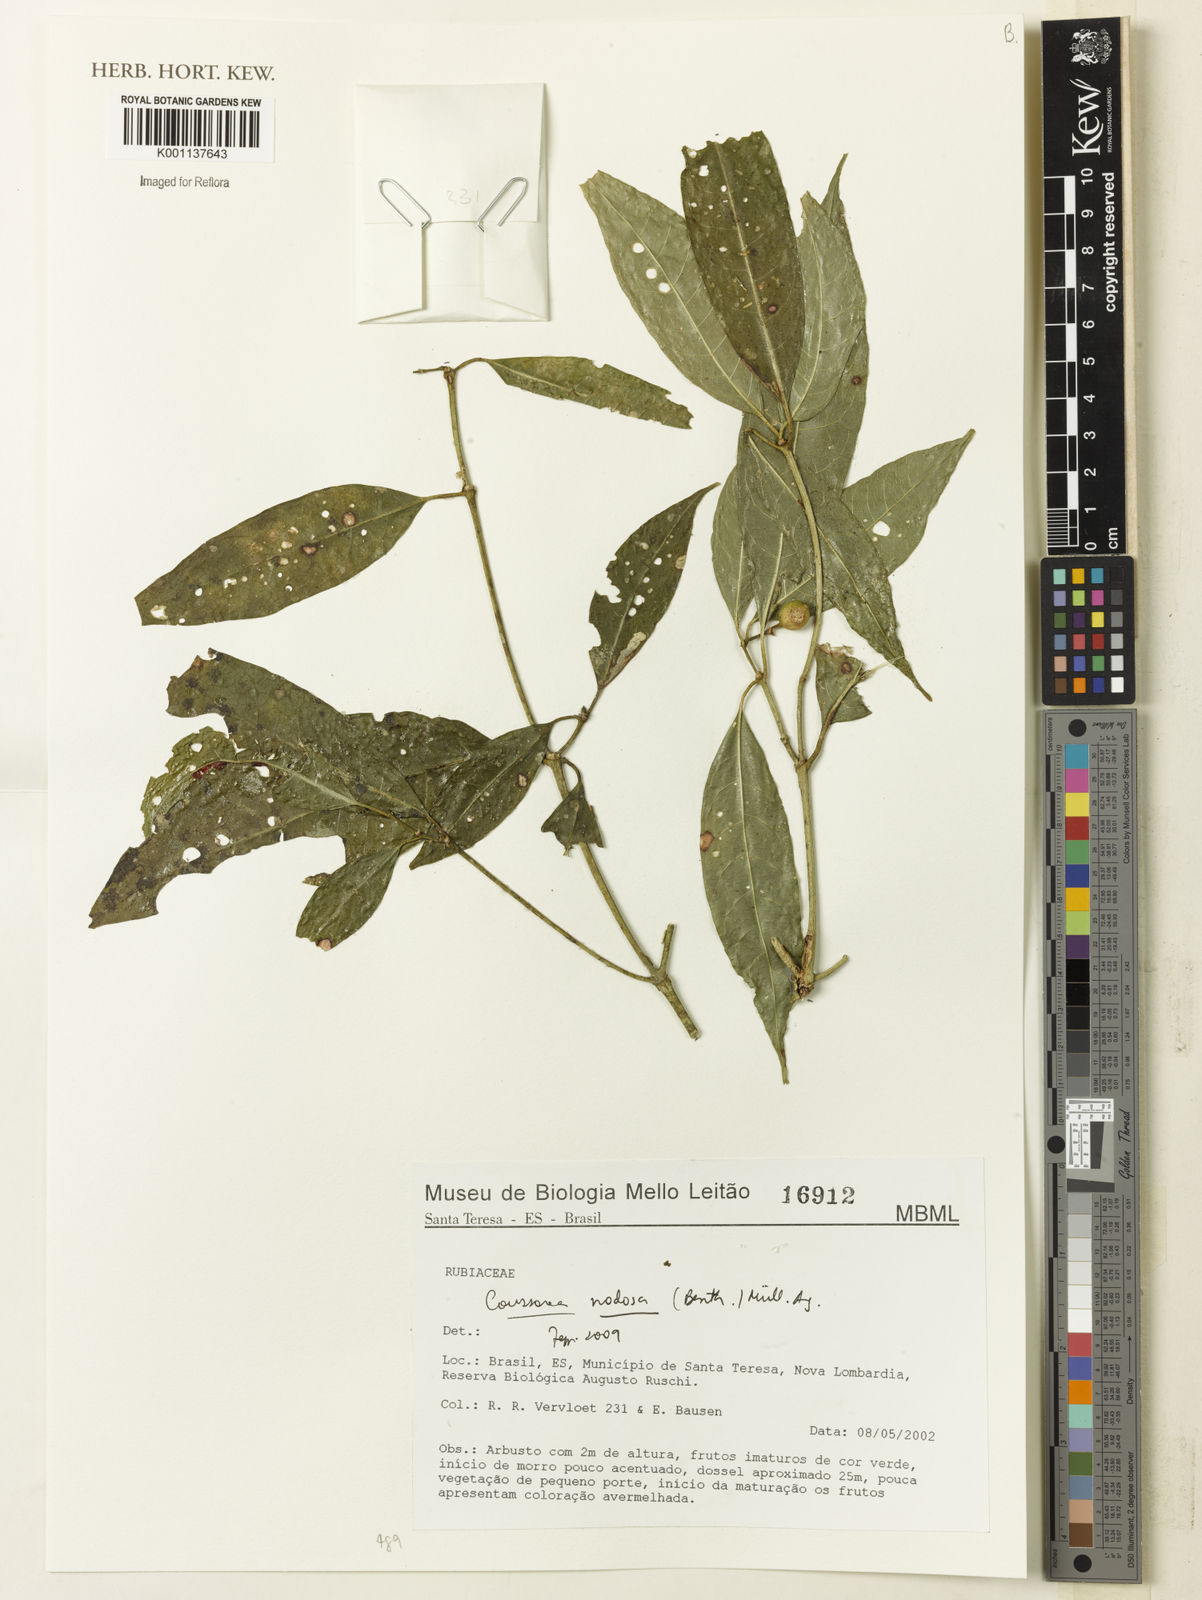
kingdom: Plantae
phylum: Tracheophyta
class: Magnoliopsida
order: Gentianales
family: Rubiaceae
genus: Coussarea
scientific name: Coussarea
